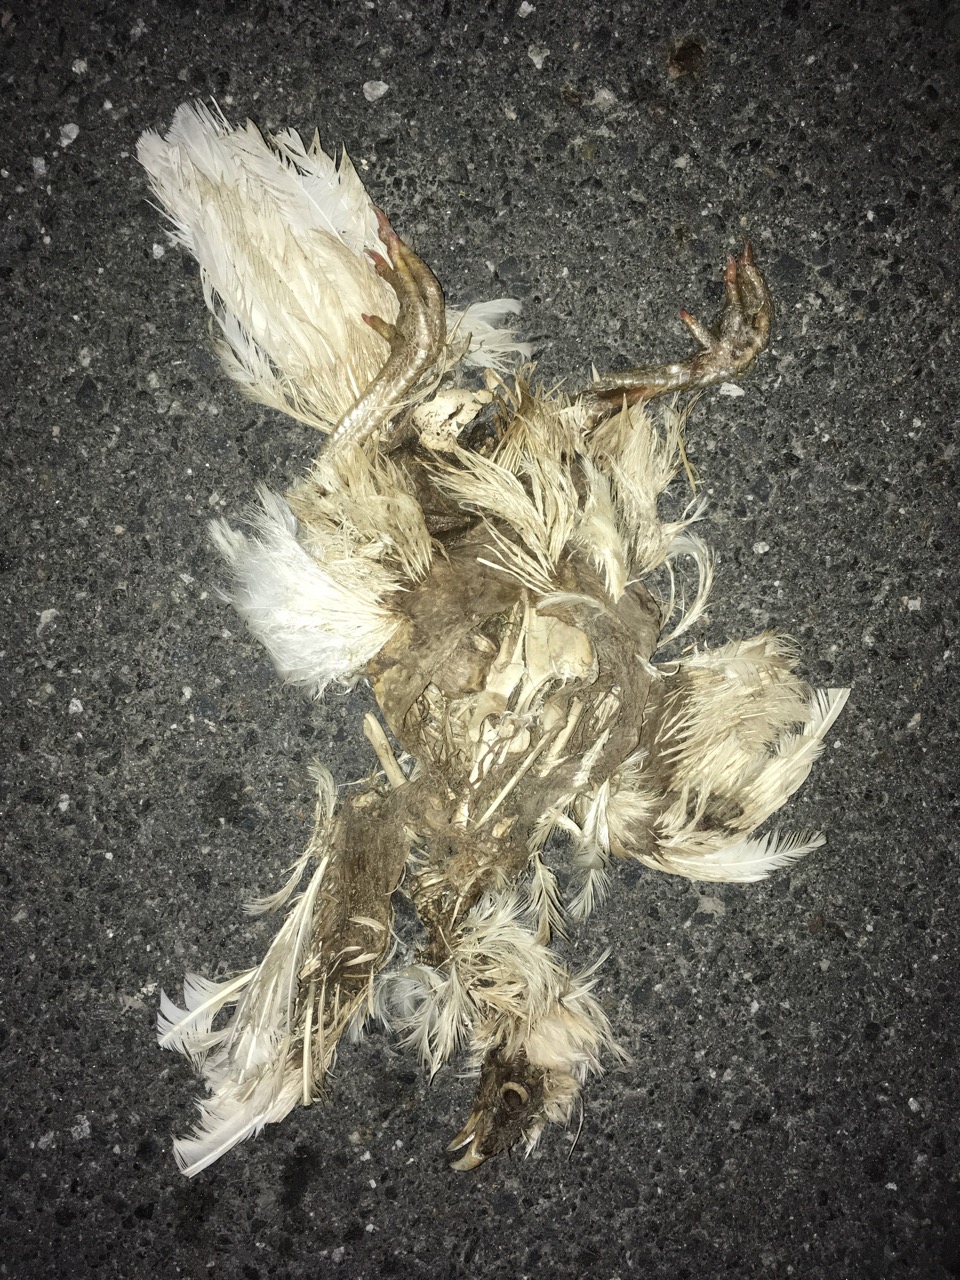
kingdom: Animalia
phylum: Chordata
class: Aves
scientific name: Aves
